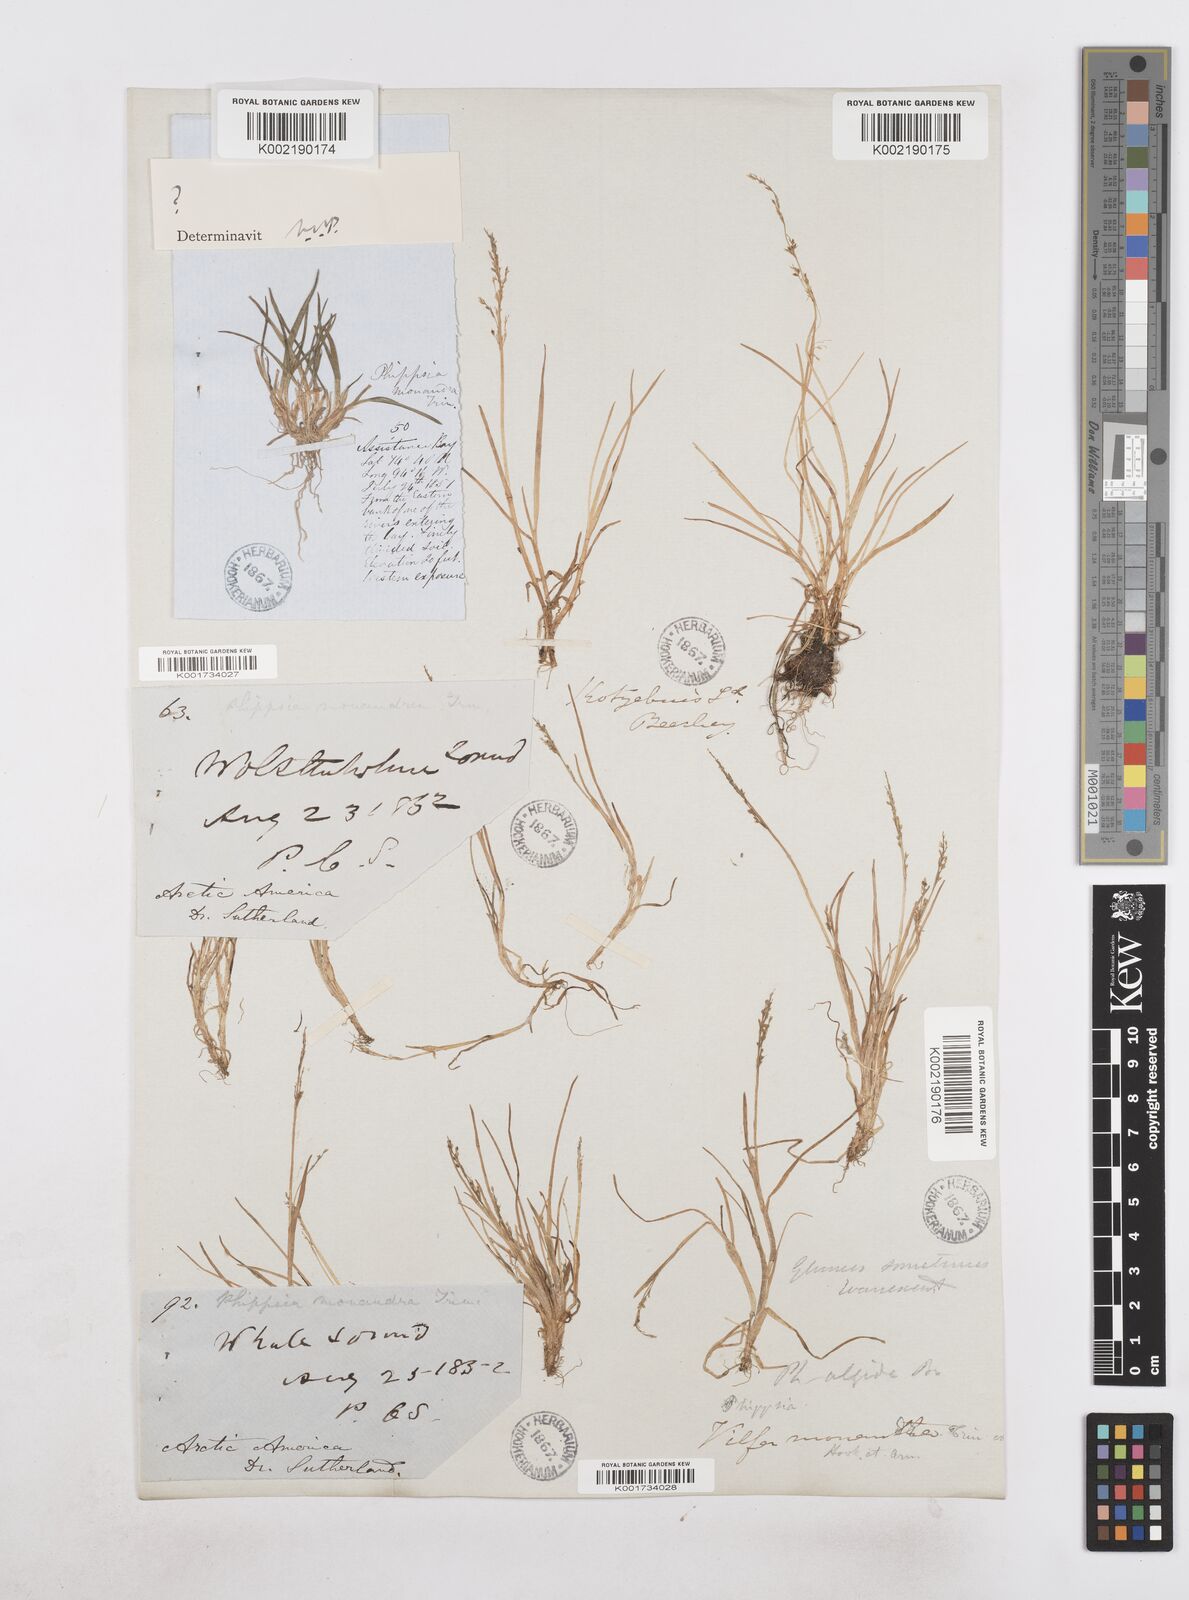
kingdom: Plantae
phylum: Tracheophyta
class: Liliopsida
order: Poales
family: Poaceae
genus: Phippsia
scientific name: Phippsia
